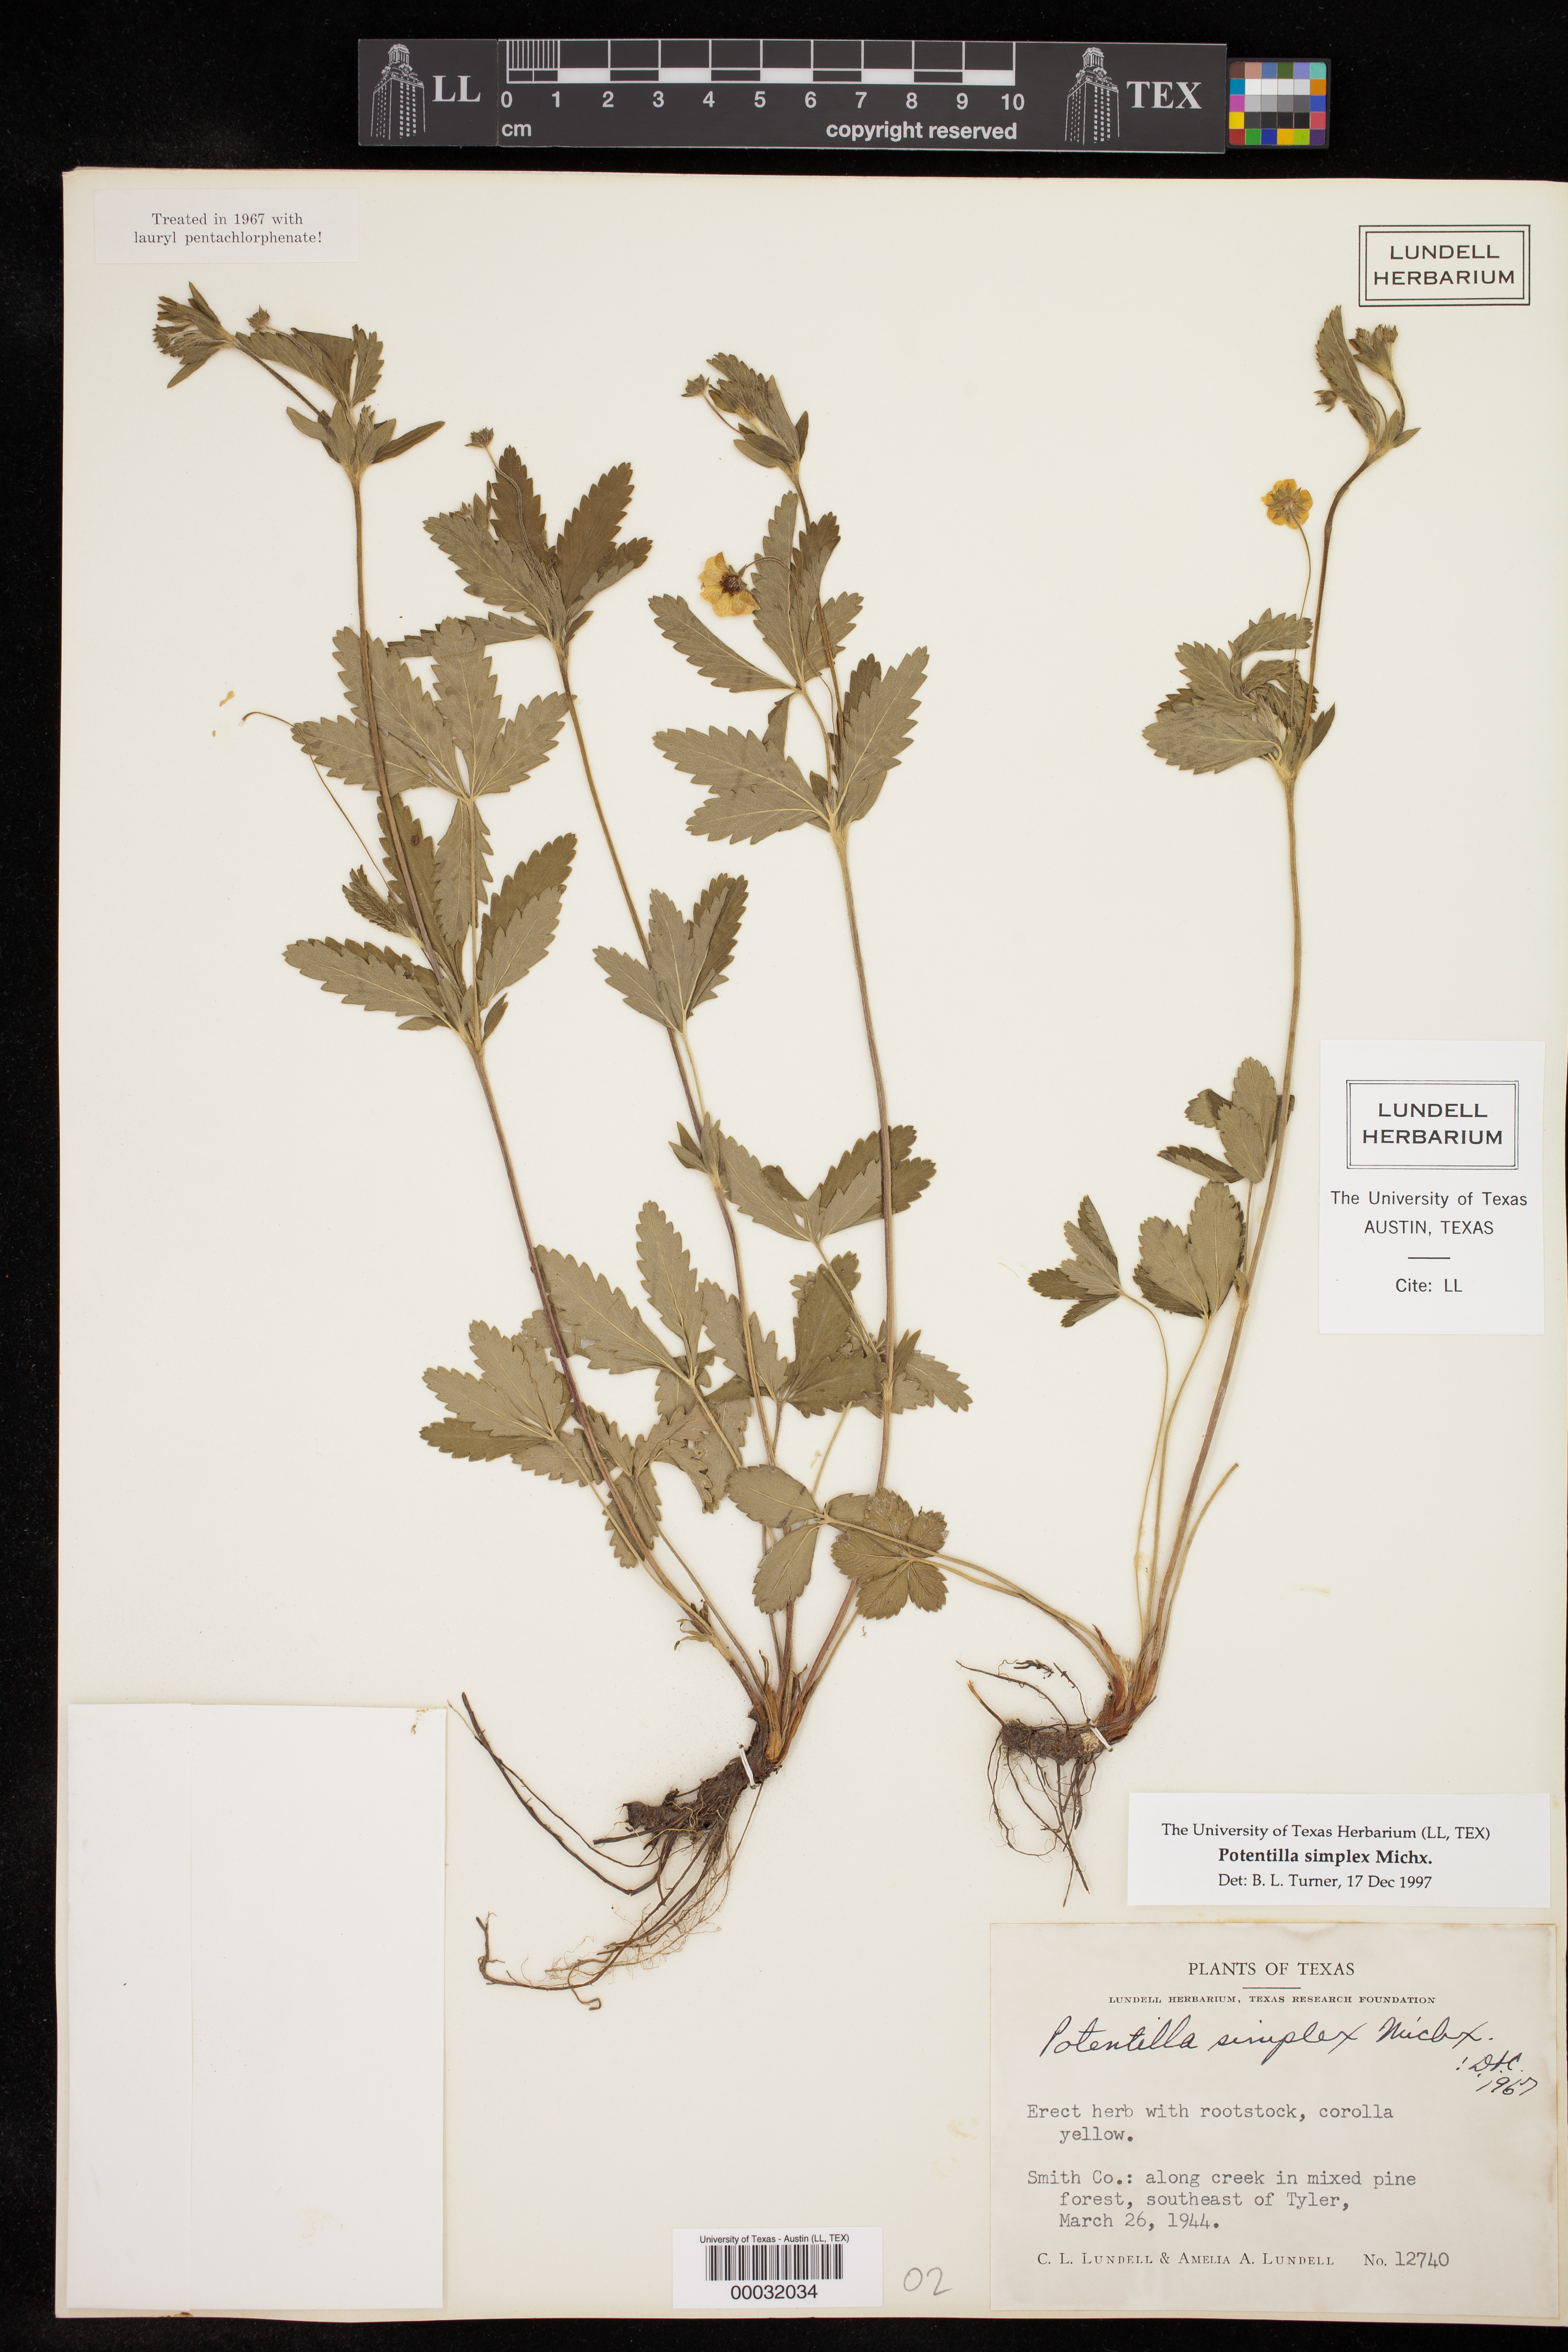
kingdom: Plantae
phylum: Tracheophyta
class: Magnoliopsida
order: Rosales
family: Rosaceae
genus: Potentilla
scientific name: Potentilla simplex
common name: Old field cinquefoil
